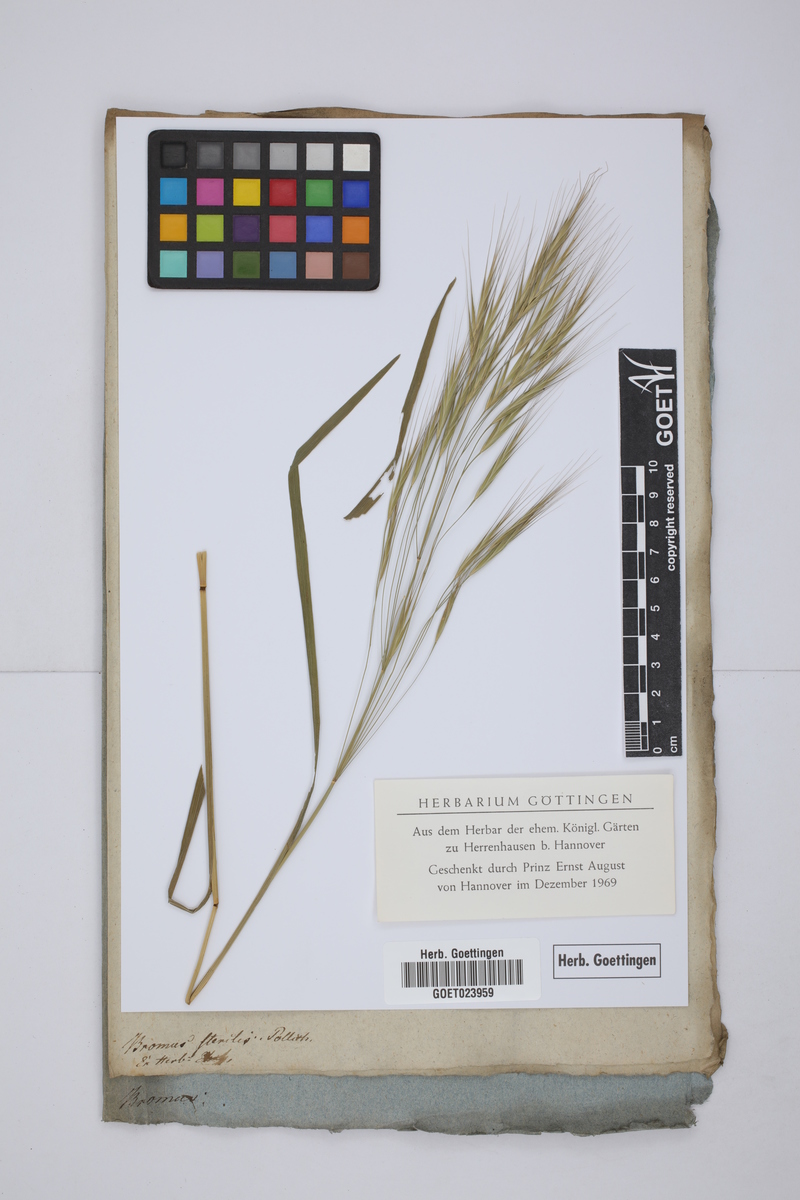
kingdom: Plantae
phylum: Tracheophyta
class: Liliopsida
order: Poales
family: Poaceae
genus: Bromus
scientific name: Bromus sterilis
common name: Poverty brome
